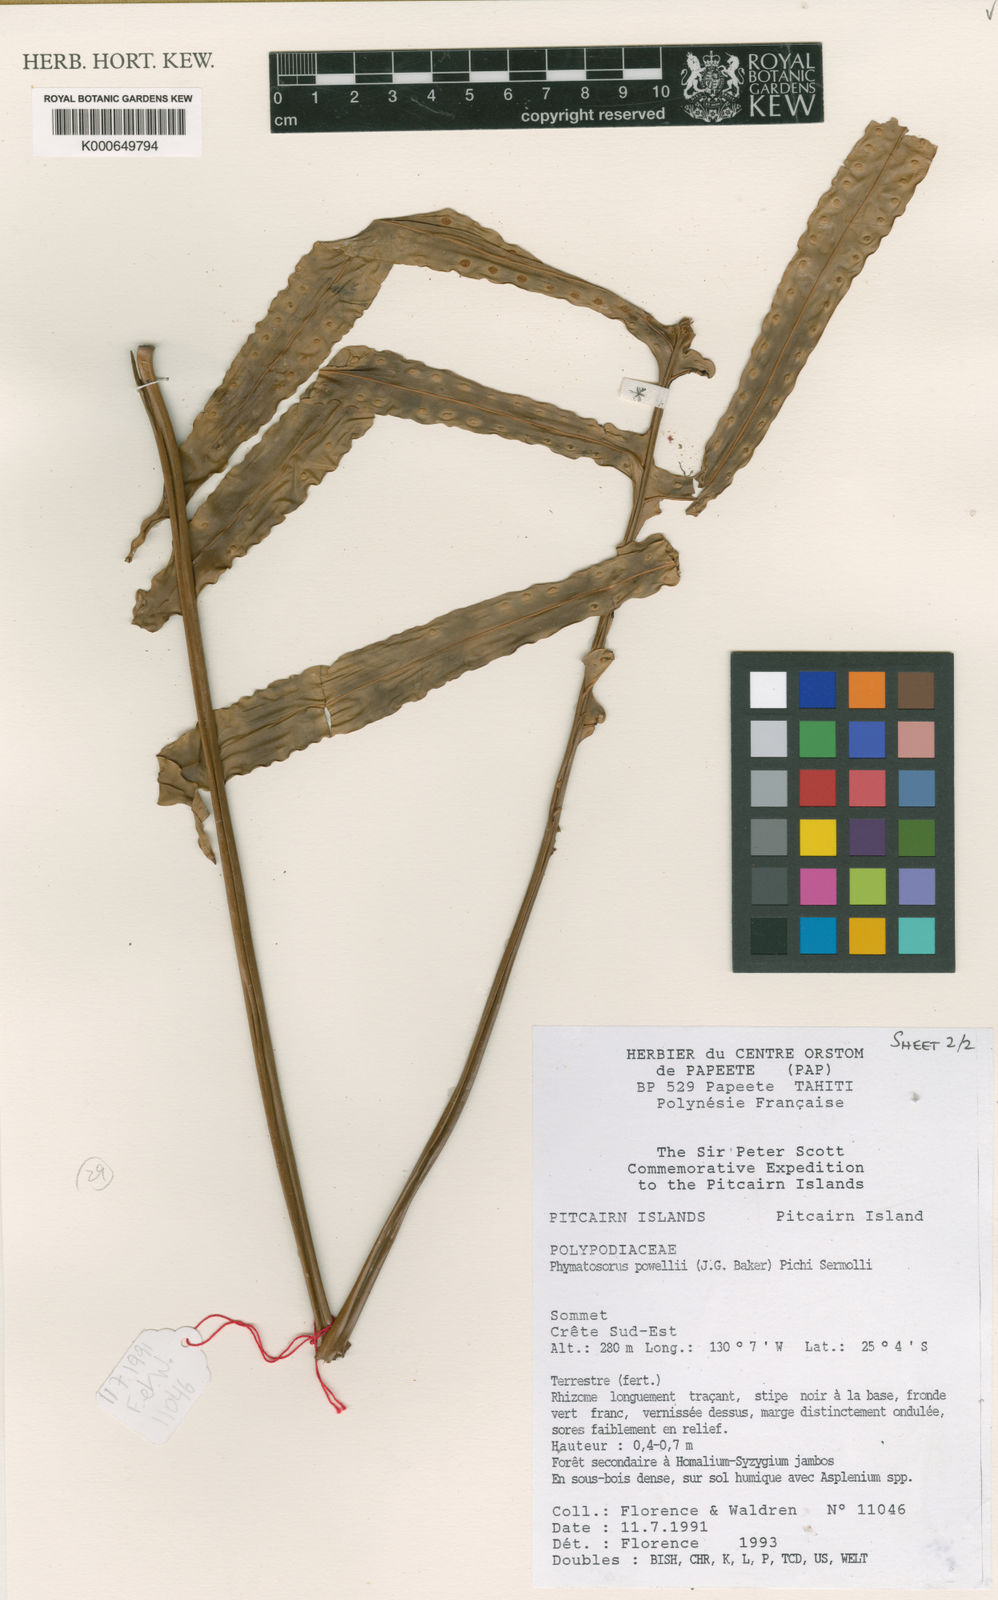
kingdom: Plantae
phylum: Tracheophyta
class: Polypodiopsida
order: Polypodiales
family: Polypodiaceae
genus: Microsorum
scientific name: Microsorum powellii
